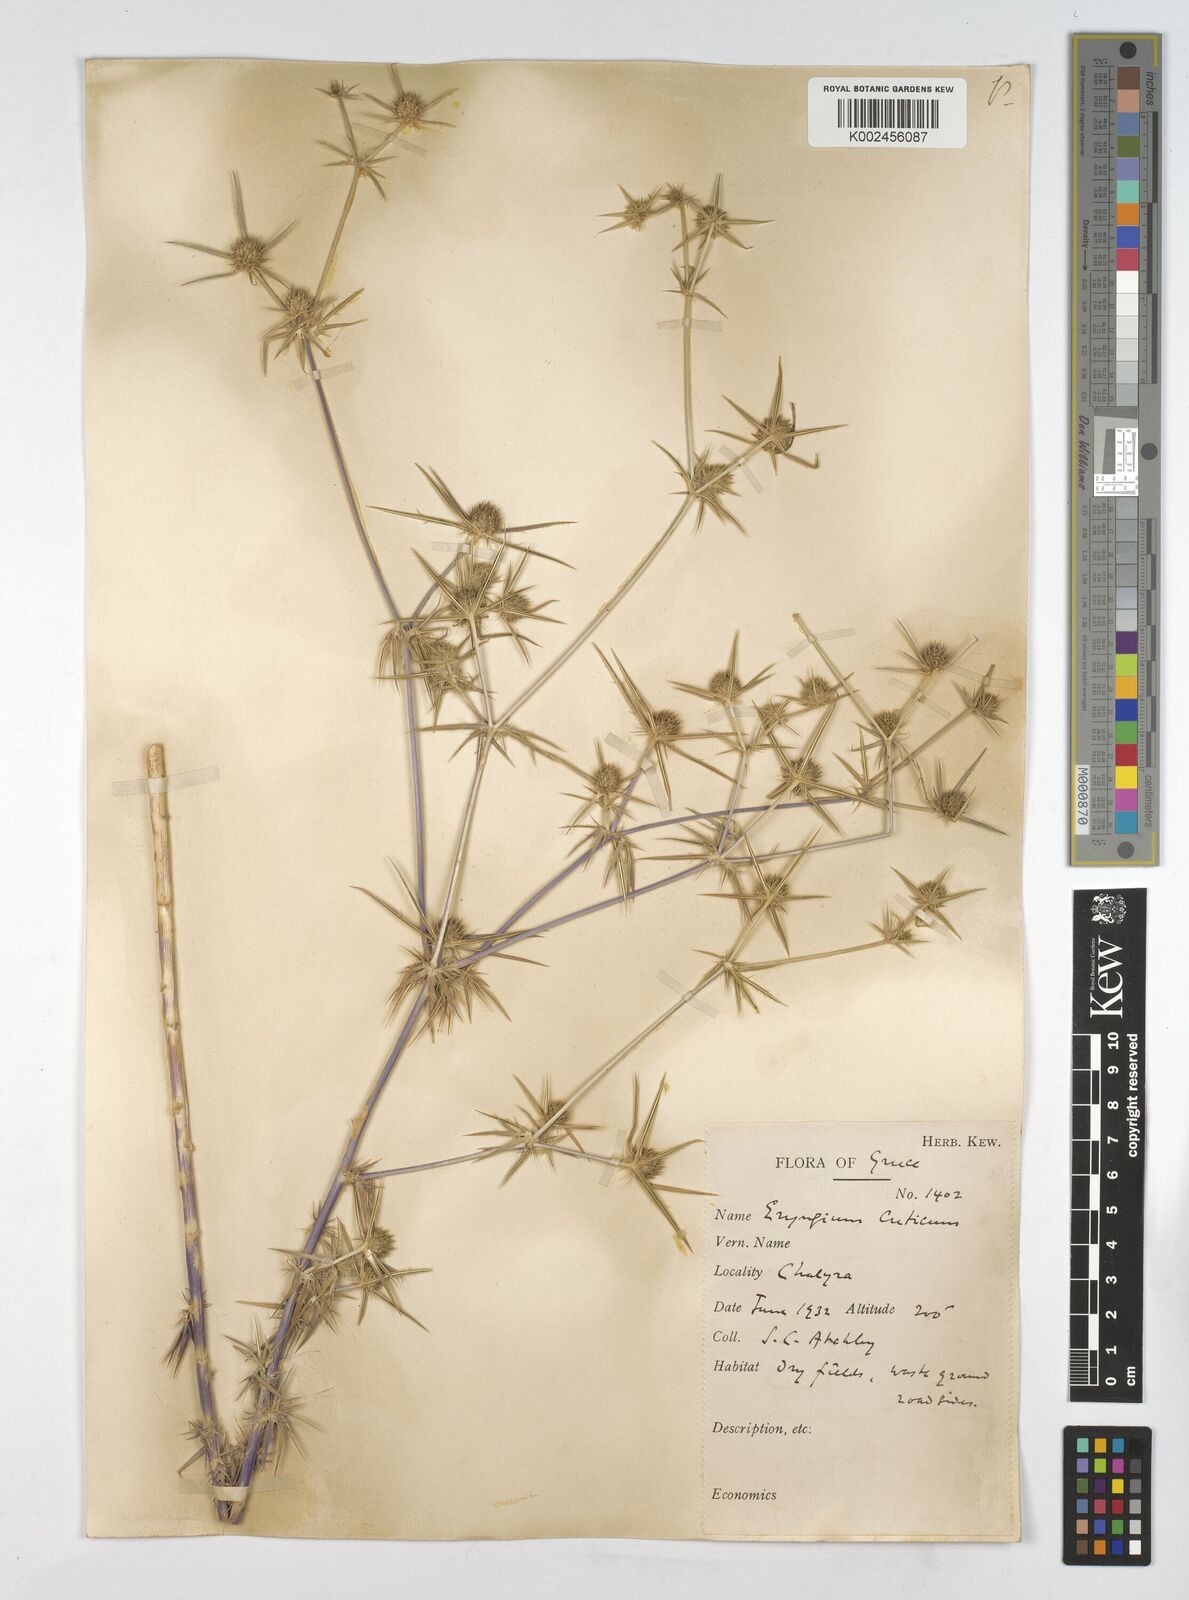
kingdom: Plantae
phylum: Tracheophyta
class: Magnoliopsida
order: Apiales
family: Apiaceae
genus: Eryngium
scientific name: Eryngium creticum
